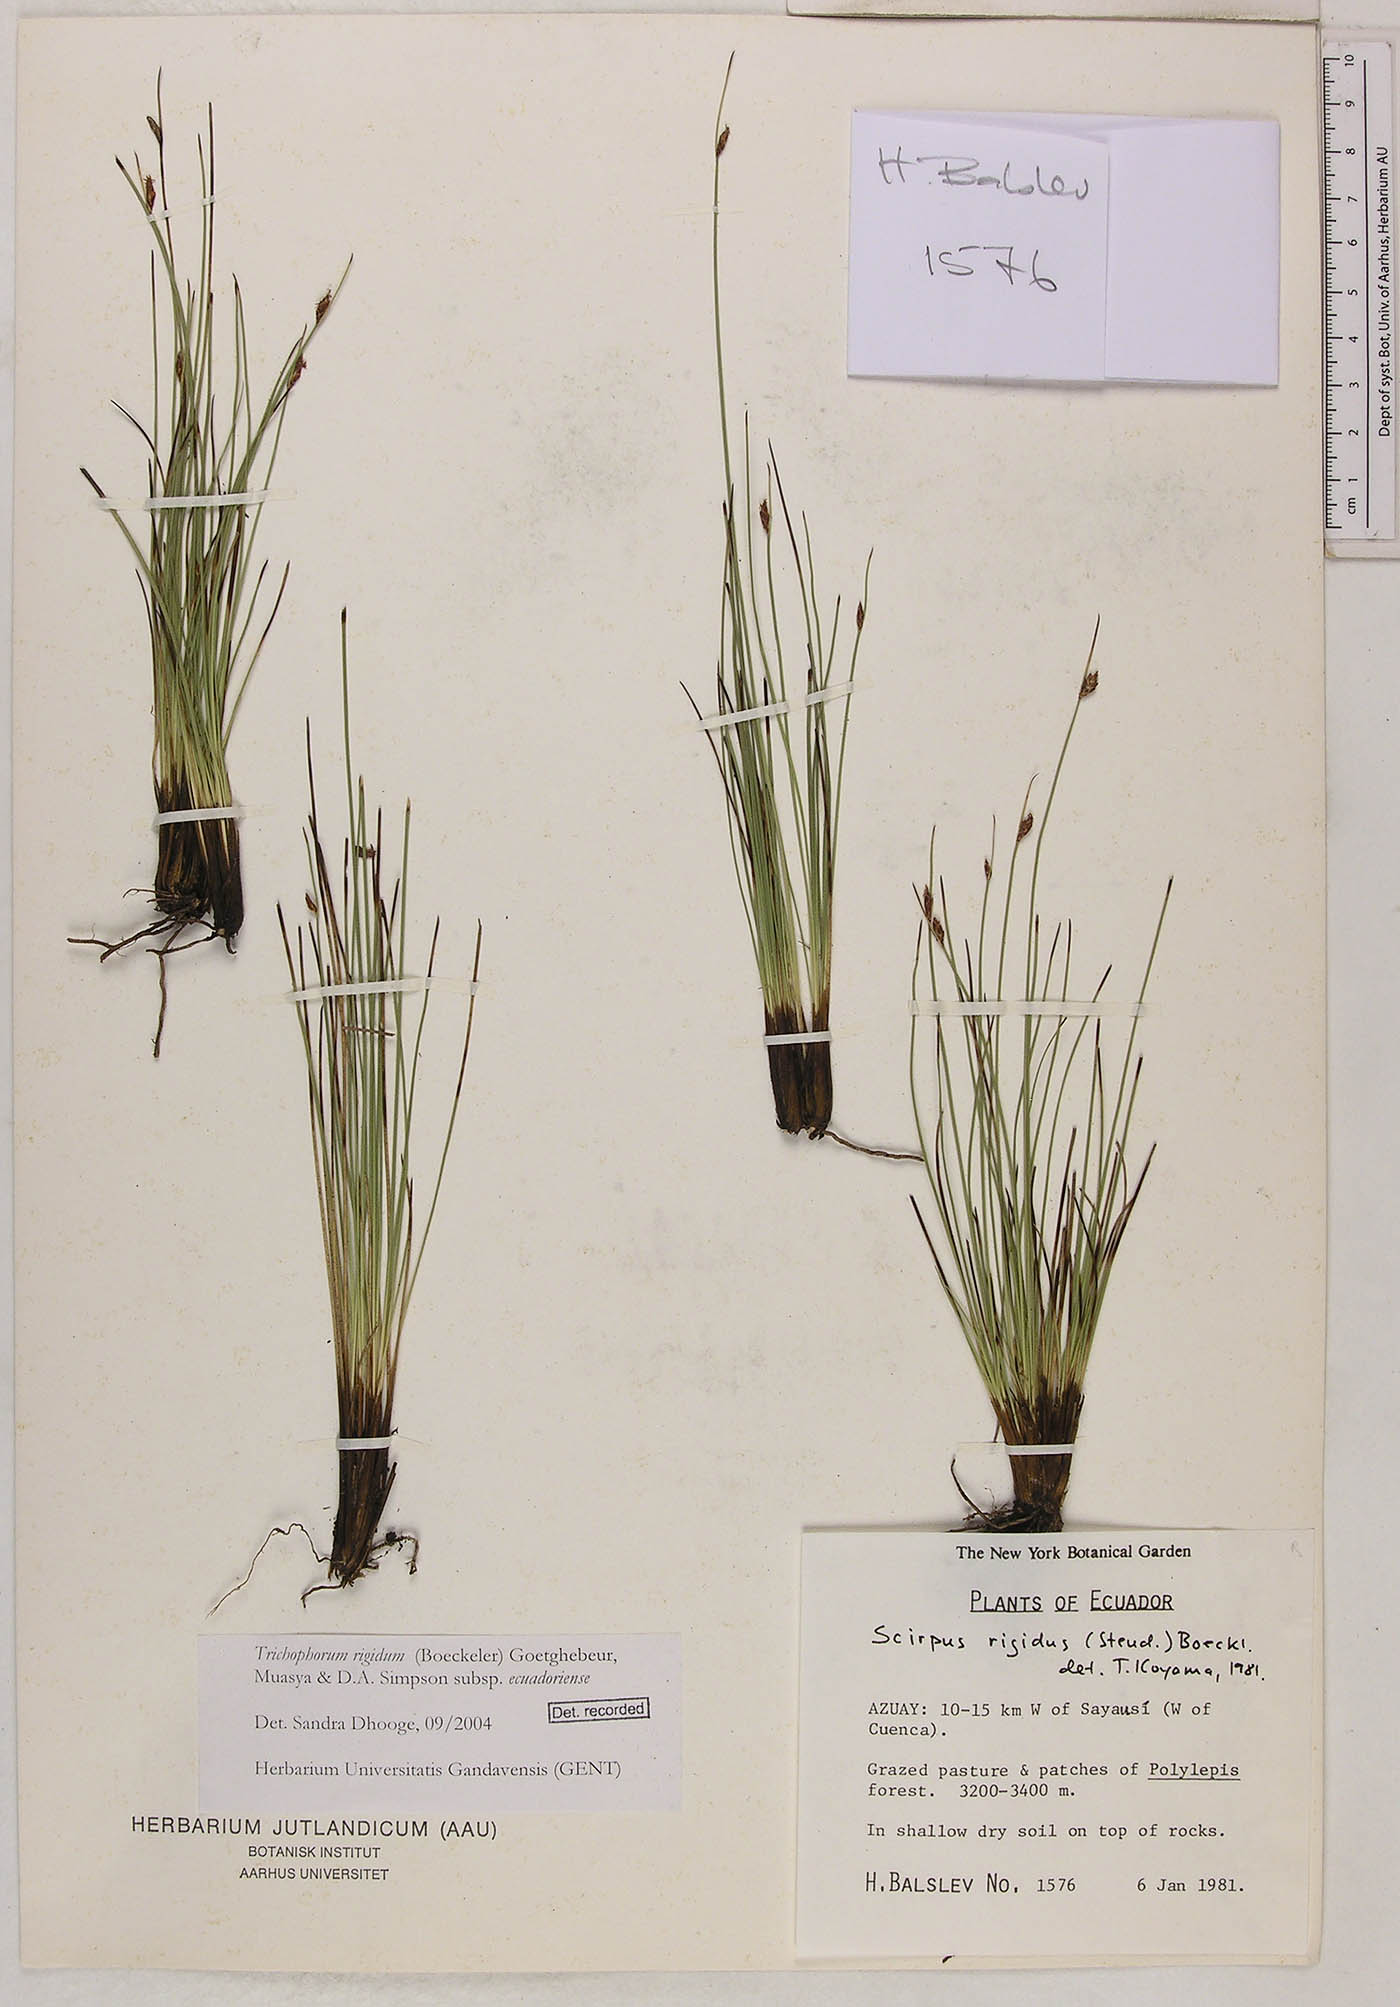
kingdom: Plantae
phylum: Tracheophyta
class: Liliopsida
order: Poales
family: Cyperaceae
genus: Trichophorum
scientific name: Trichophorum rigidum
